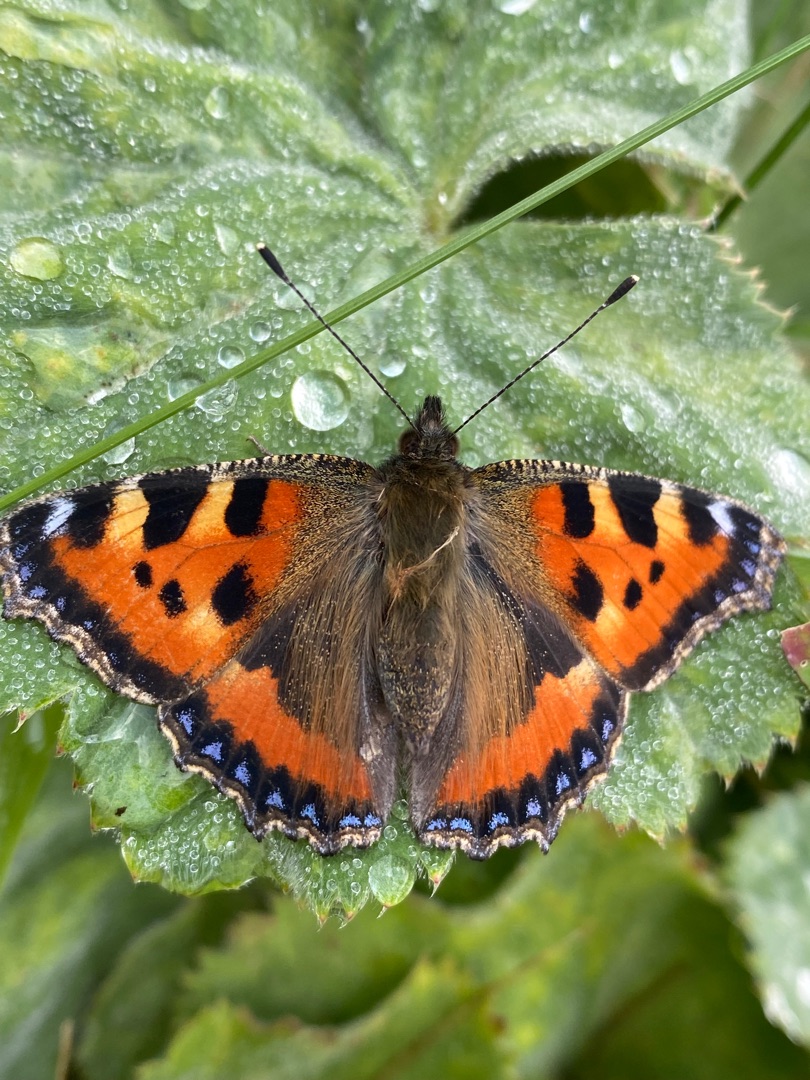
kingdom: Animalia
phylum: Arthropoda
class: Insecta
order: Lepidoptera
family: Nymphalidae
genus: Aglais
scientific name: Aglais urticae
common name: Nældens takvinge
